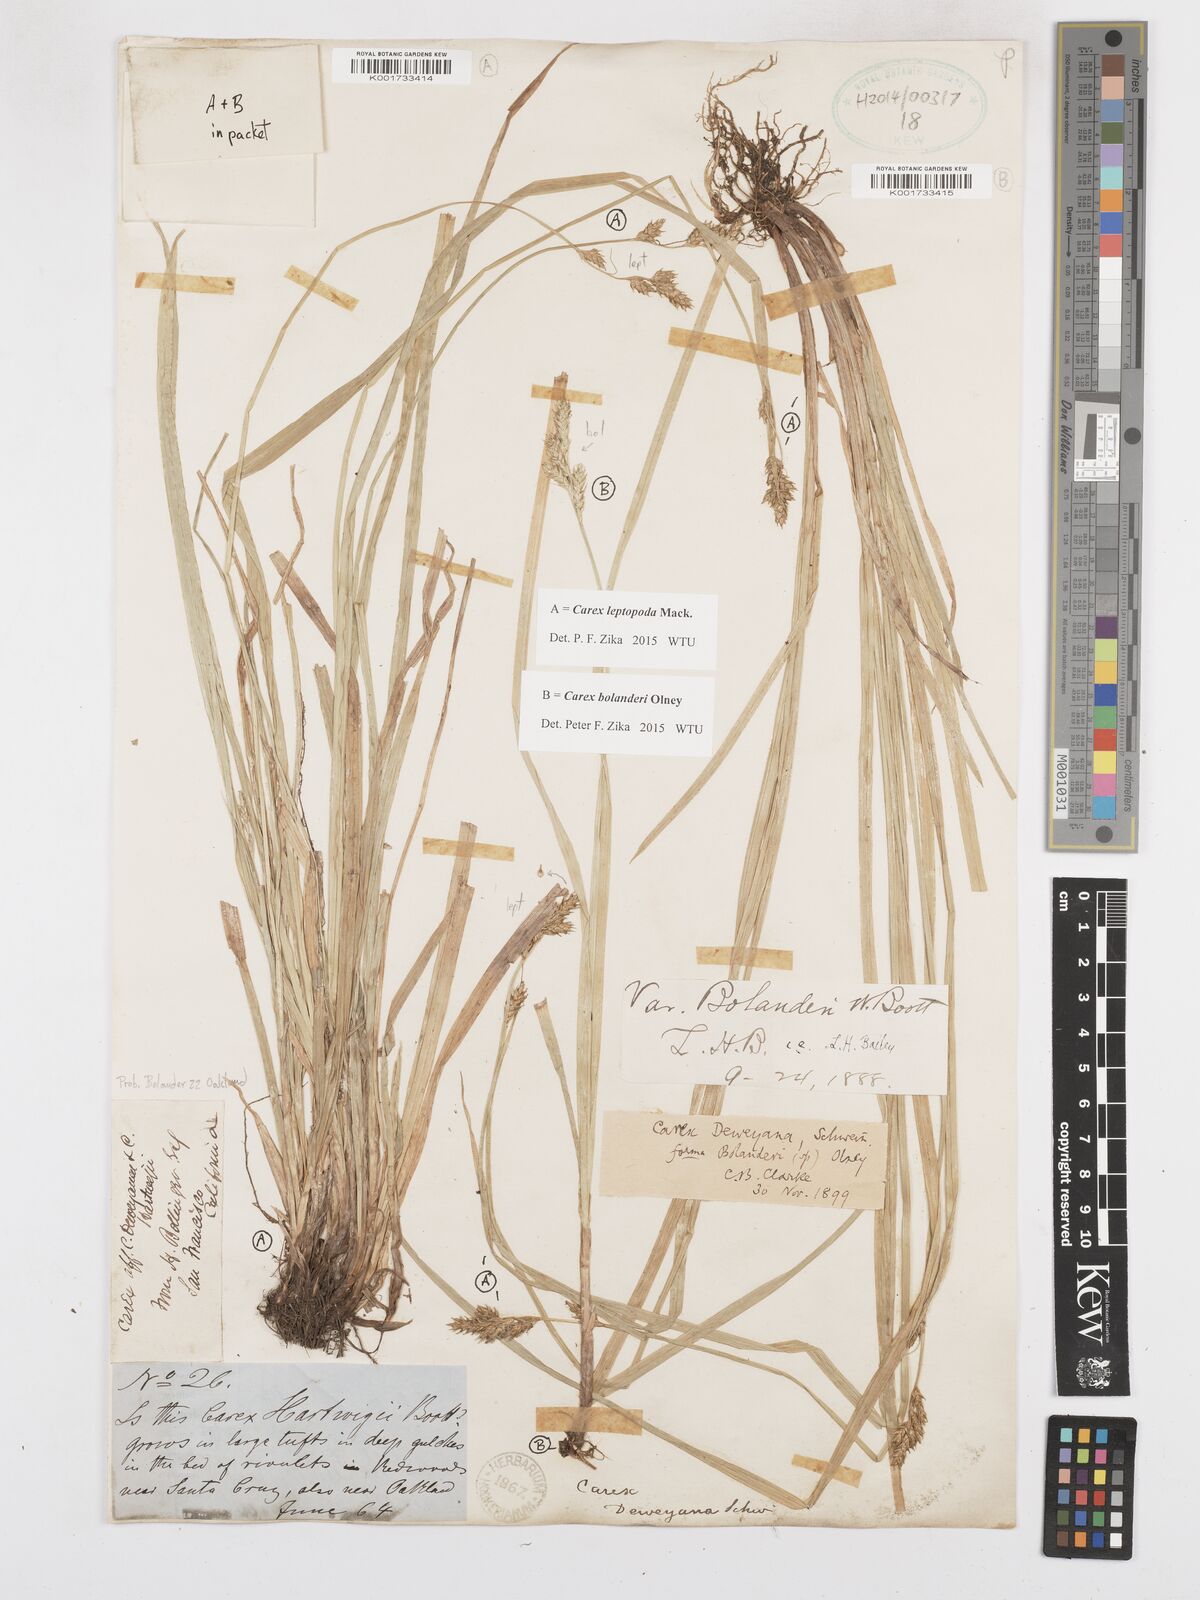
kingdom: Plantae
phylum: Tracheophyta
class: Liliopsida
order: Poales
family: Cyperaceae
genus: Carex
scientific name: Carex bolanderi
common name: Bolander's sedge
